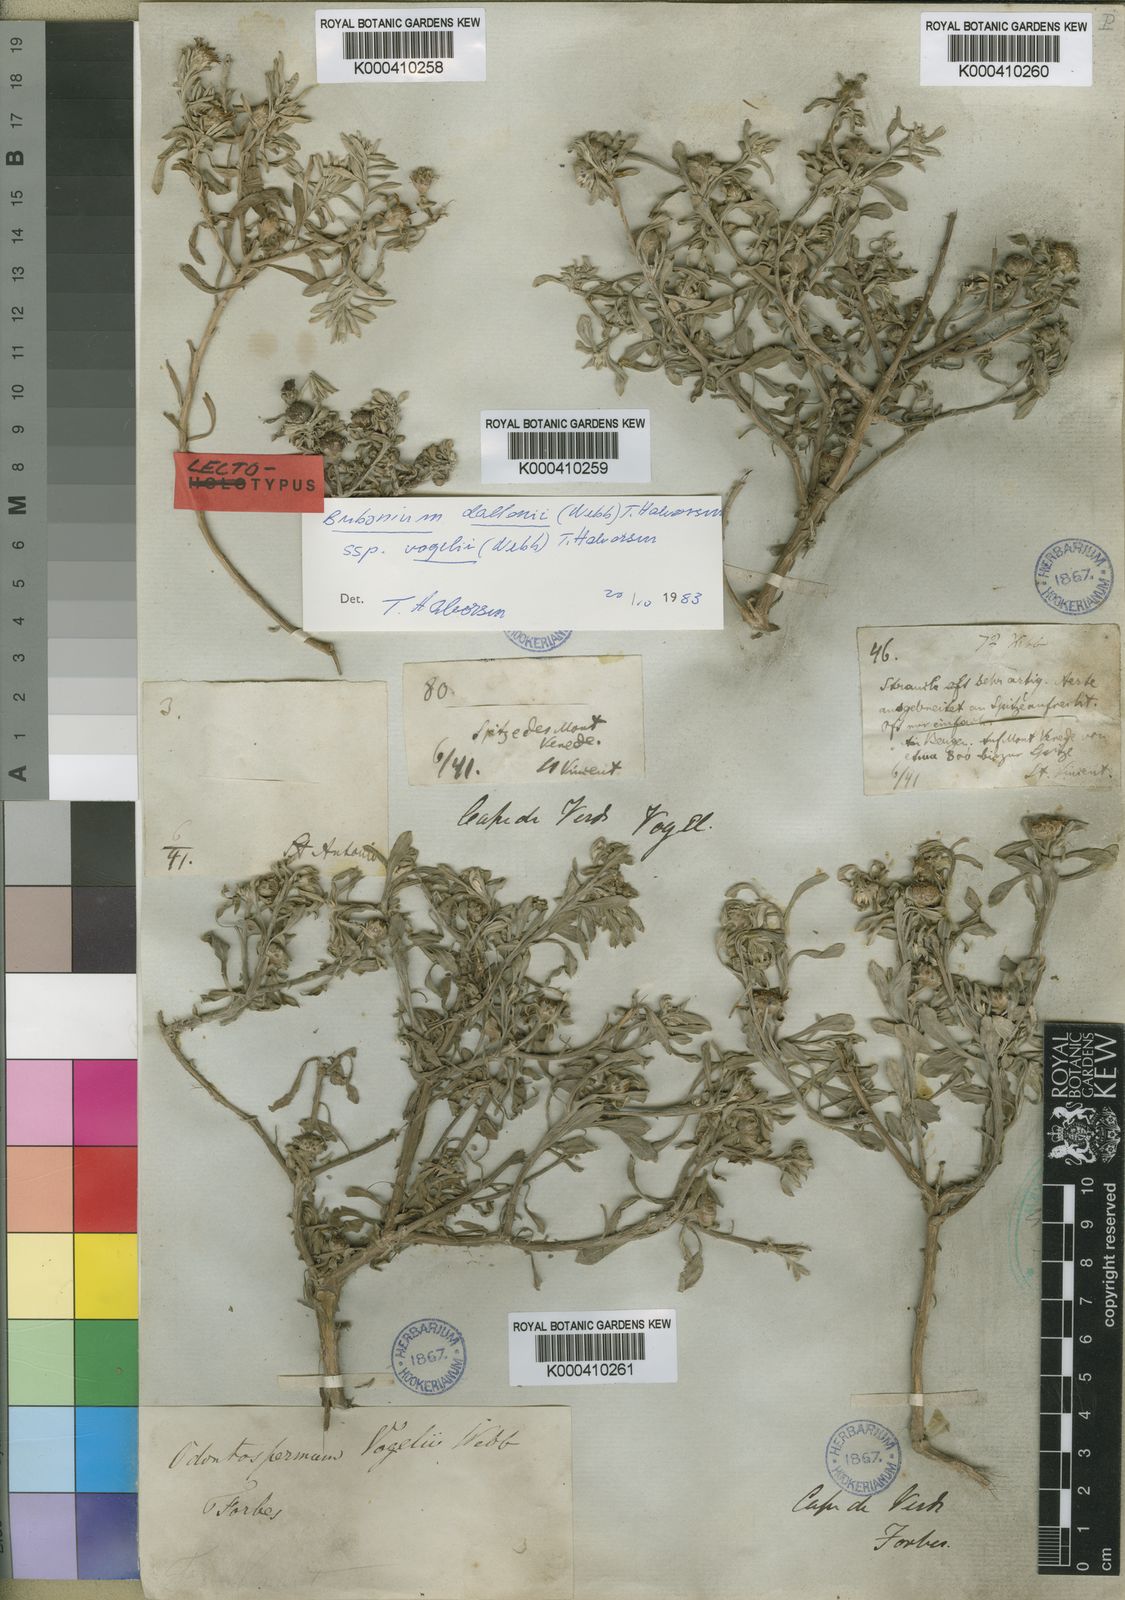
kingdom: Plantae
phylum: Tracheophyta
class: Magnoliopsida
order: Asterales
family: Asteraceae
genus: Asteriscus
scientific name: Asteriscus daltonii
